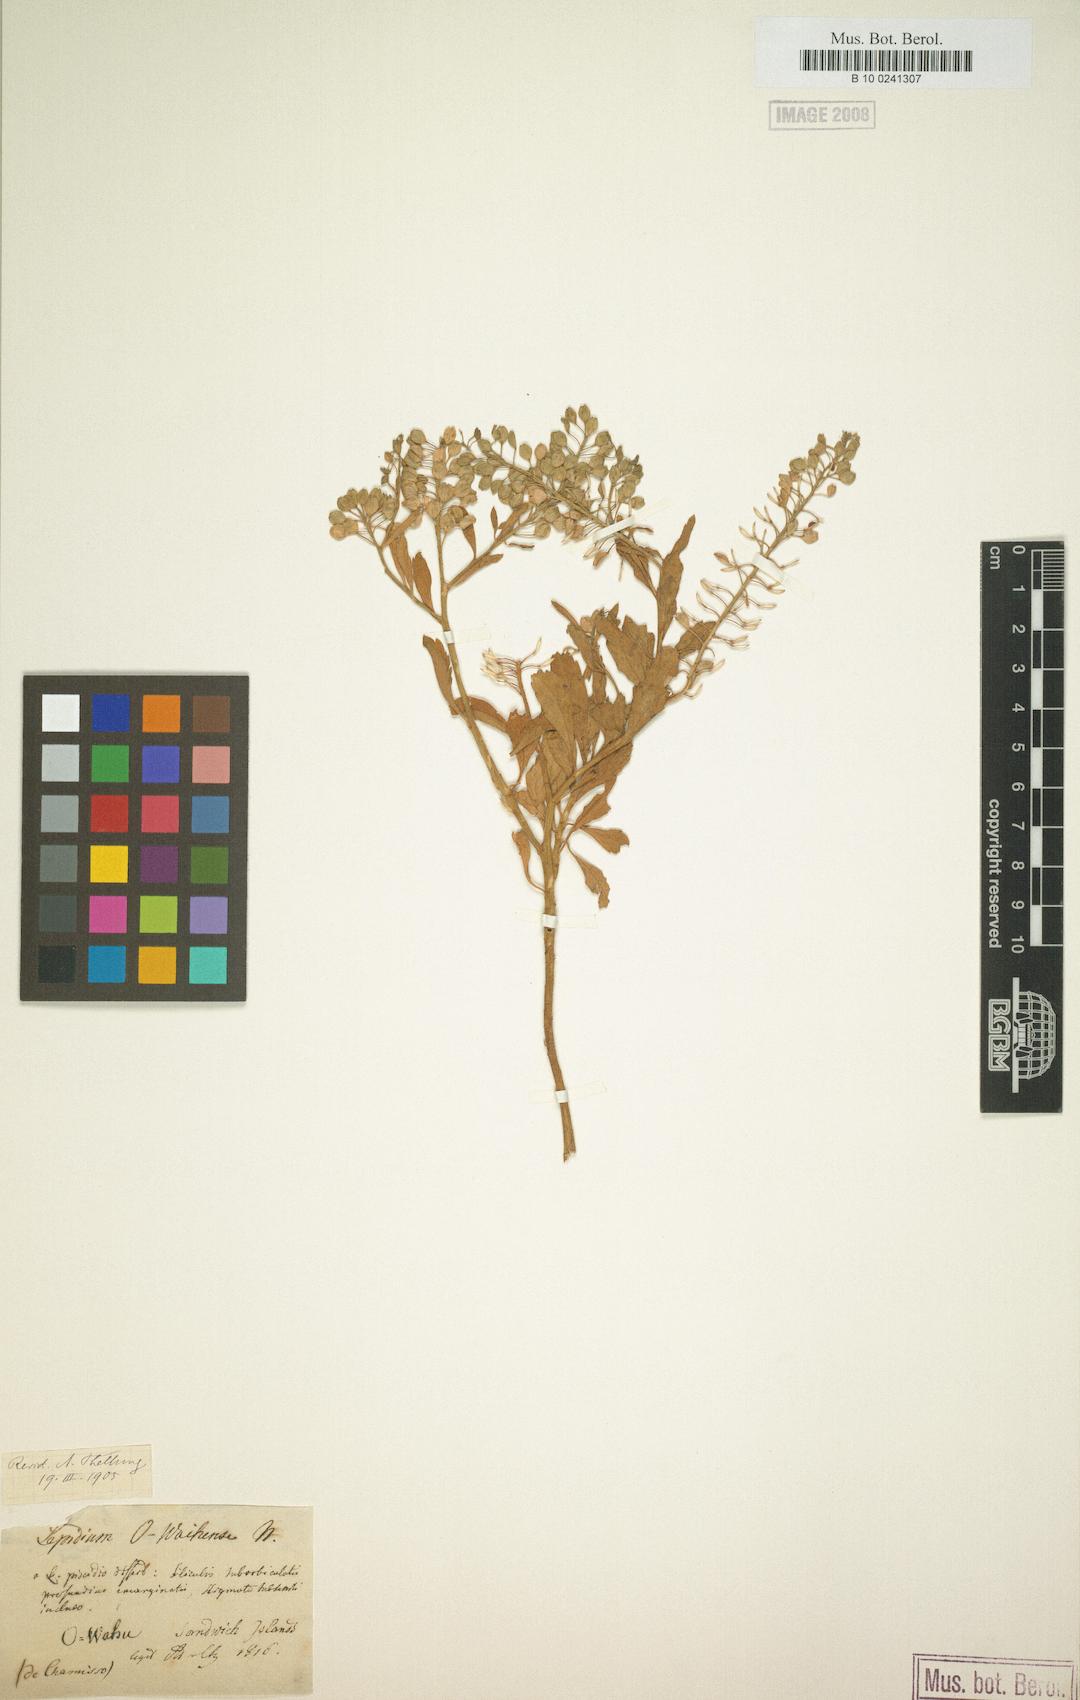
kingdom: Plantae
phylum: Tracheophyta
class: Magnoliopsida
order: Brassicales
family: Brassicaceae
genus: Lepidium
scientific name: Lepidium owaihiense
